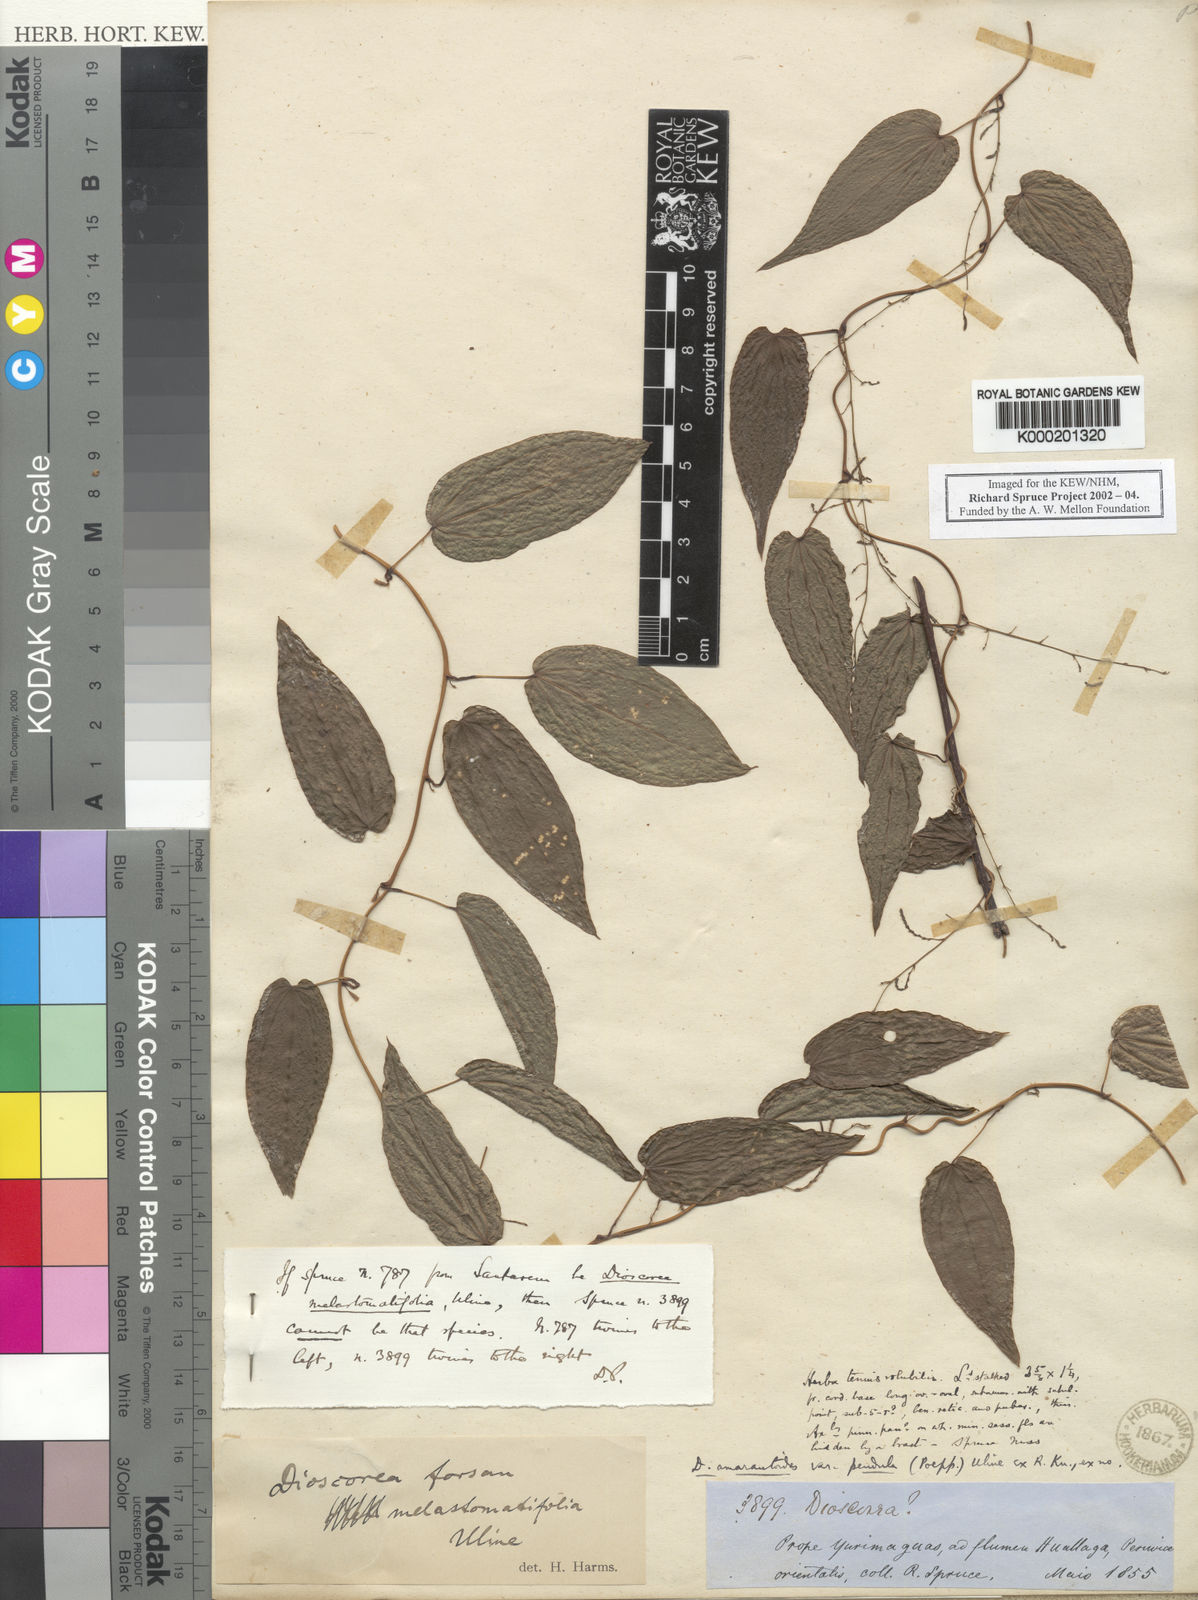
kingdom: Plantae
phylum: Tracheophyta
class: Liliopsida
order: Dioscoreales
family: Dioscoreaceae
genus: Dioscorea
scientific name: Dioscorea
